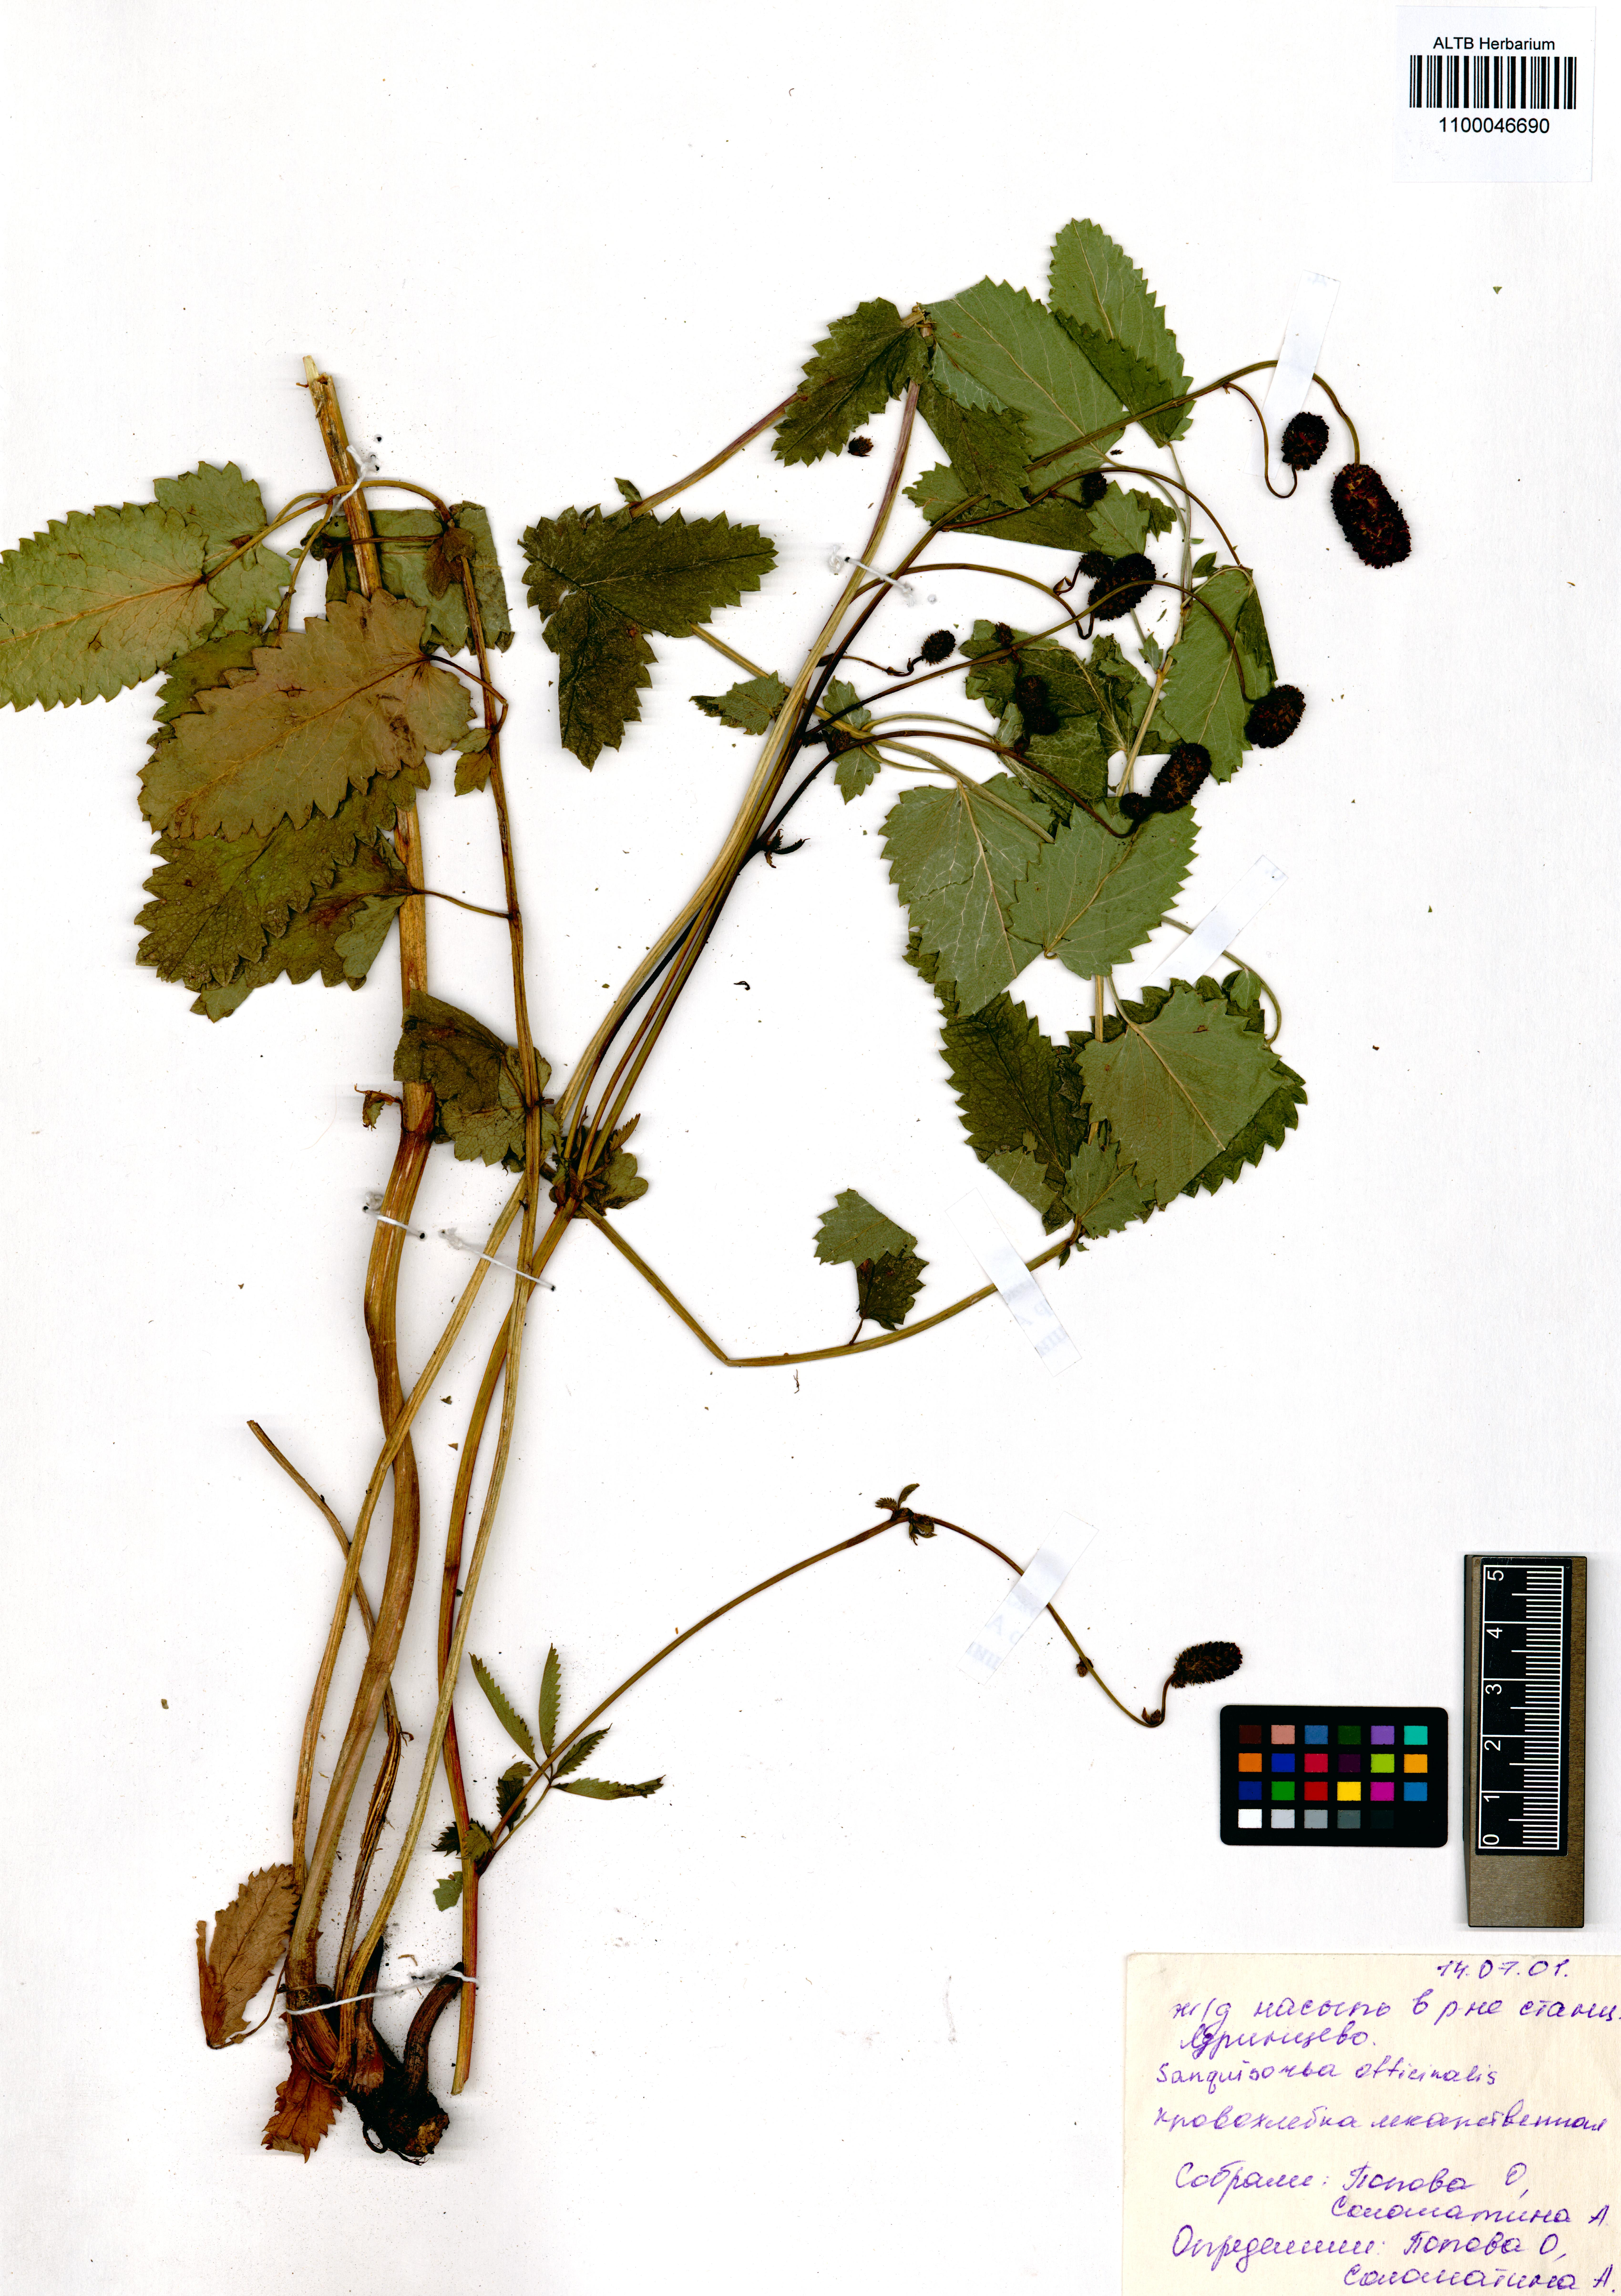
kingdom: Plantae
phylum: Tracheophyta
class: Magnoliopsida
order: Rosales
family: Rosaceae
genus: Sanguisorba
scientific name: Sanguisorba officinalis
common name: Great burnet
